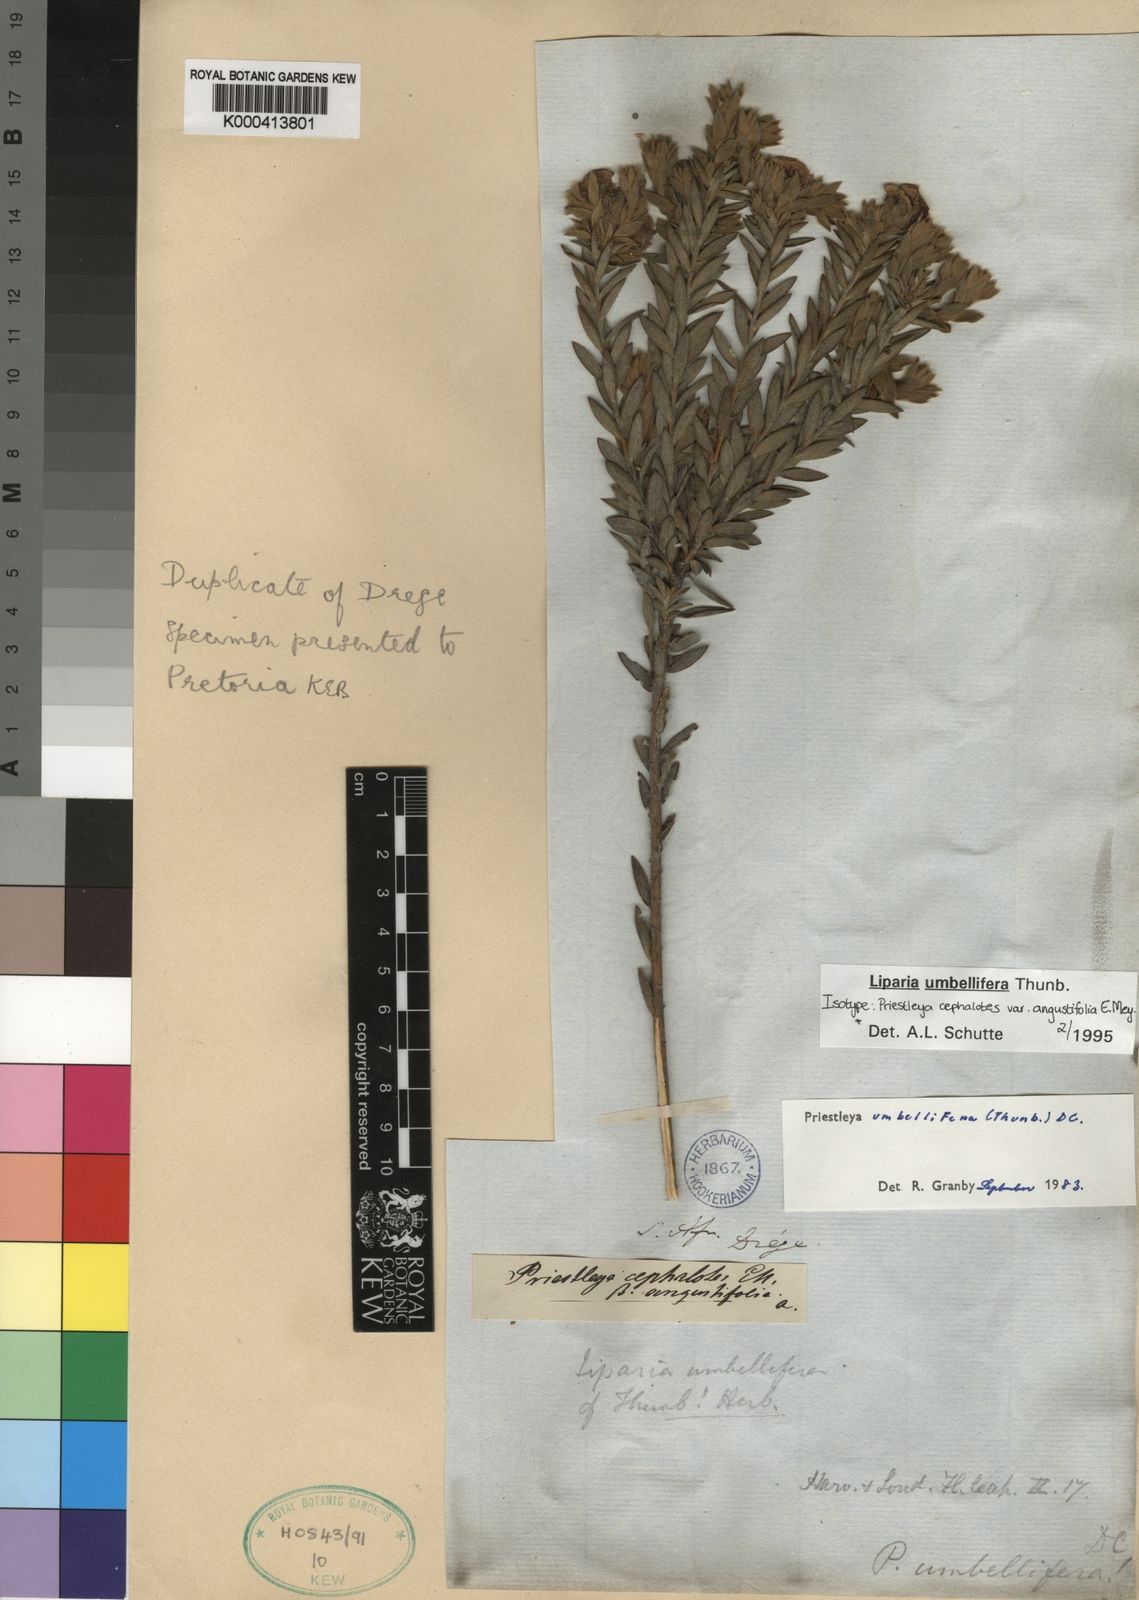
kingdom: Plantae
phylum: Tracheophyta
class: Magnoliopsida
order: Fabales
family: Fabaceae
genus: Liparia
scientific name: Liparia umbellifera
